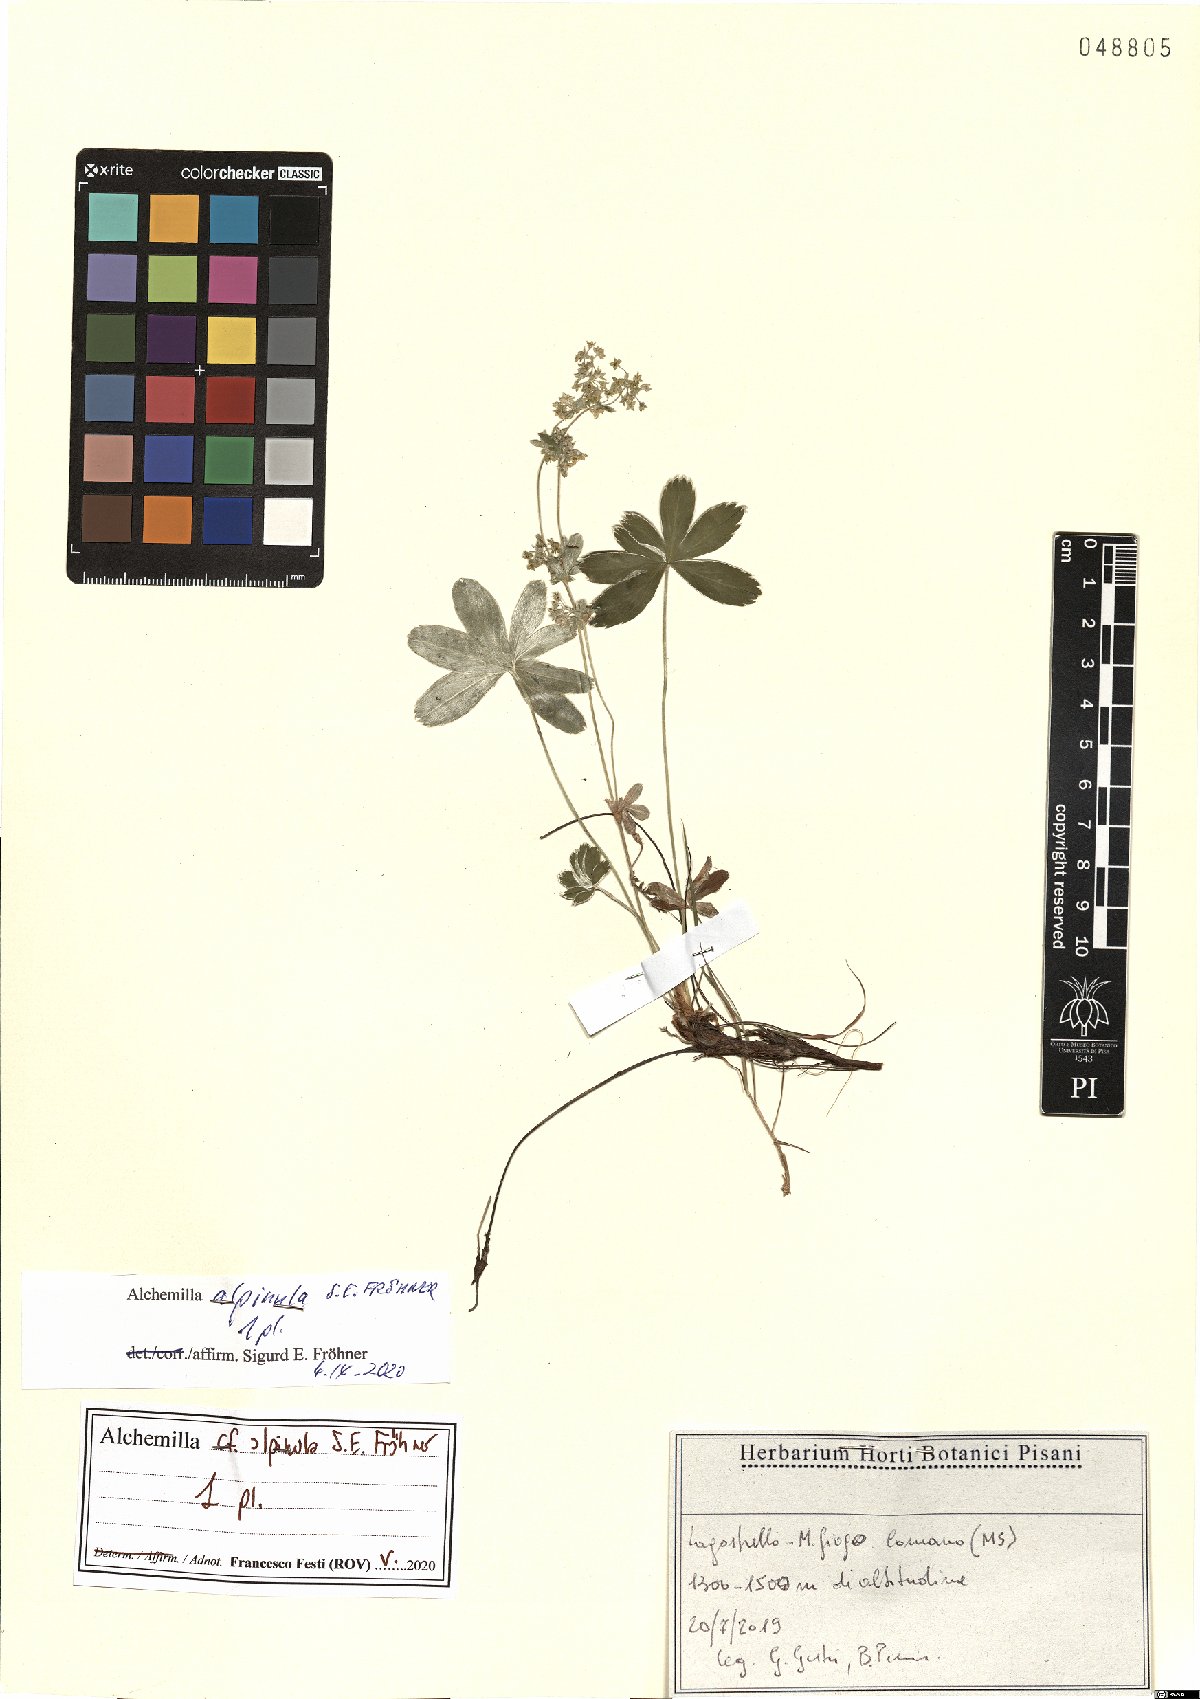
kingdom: Plantae
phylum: Tracheophyta
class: Magnoliopsida
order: Rosales
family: Rosaceae
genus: Alchemilla
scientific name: Alchemilla alpinula
